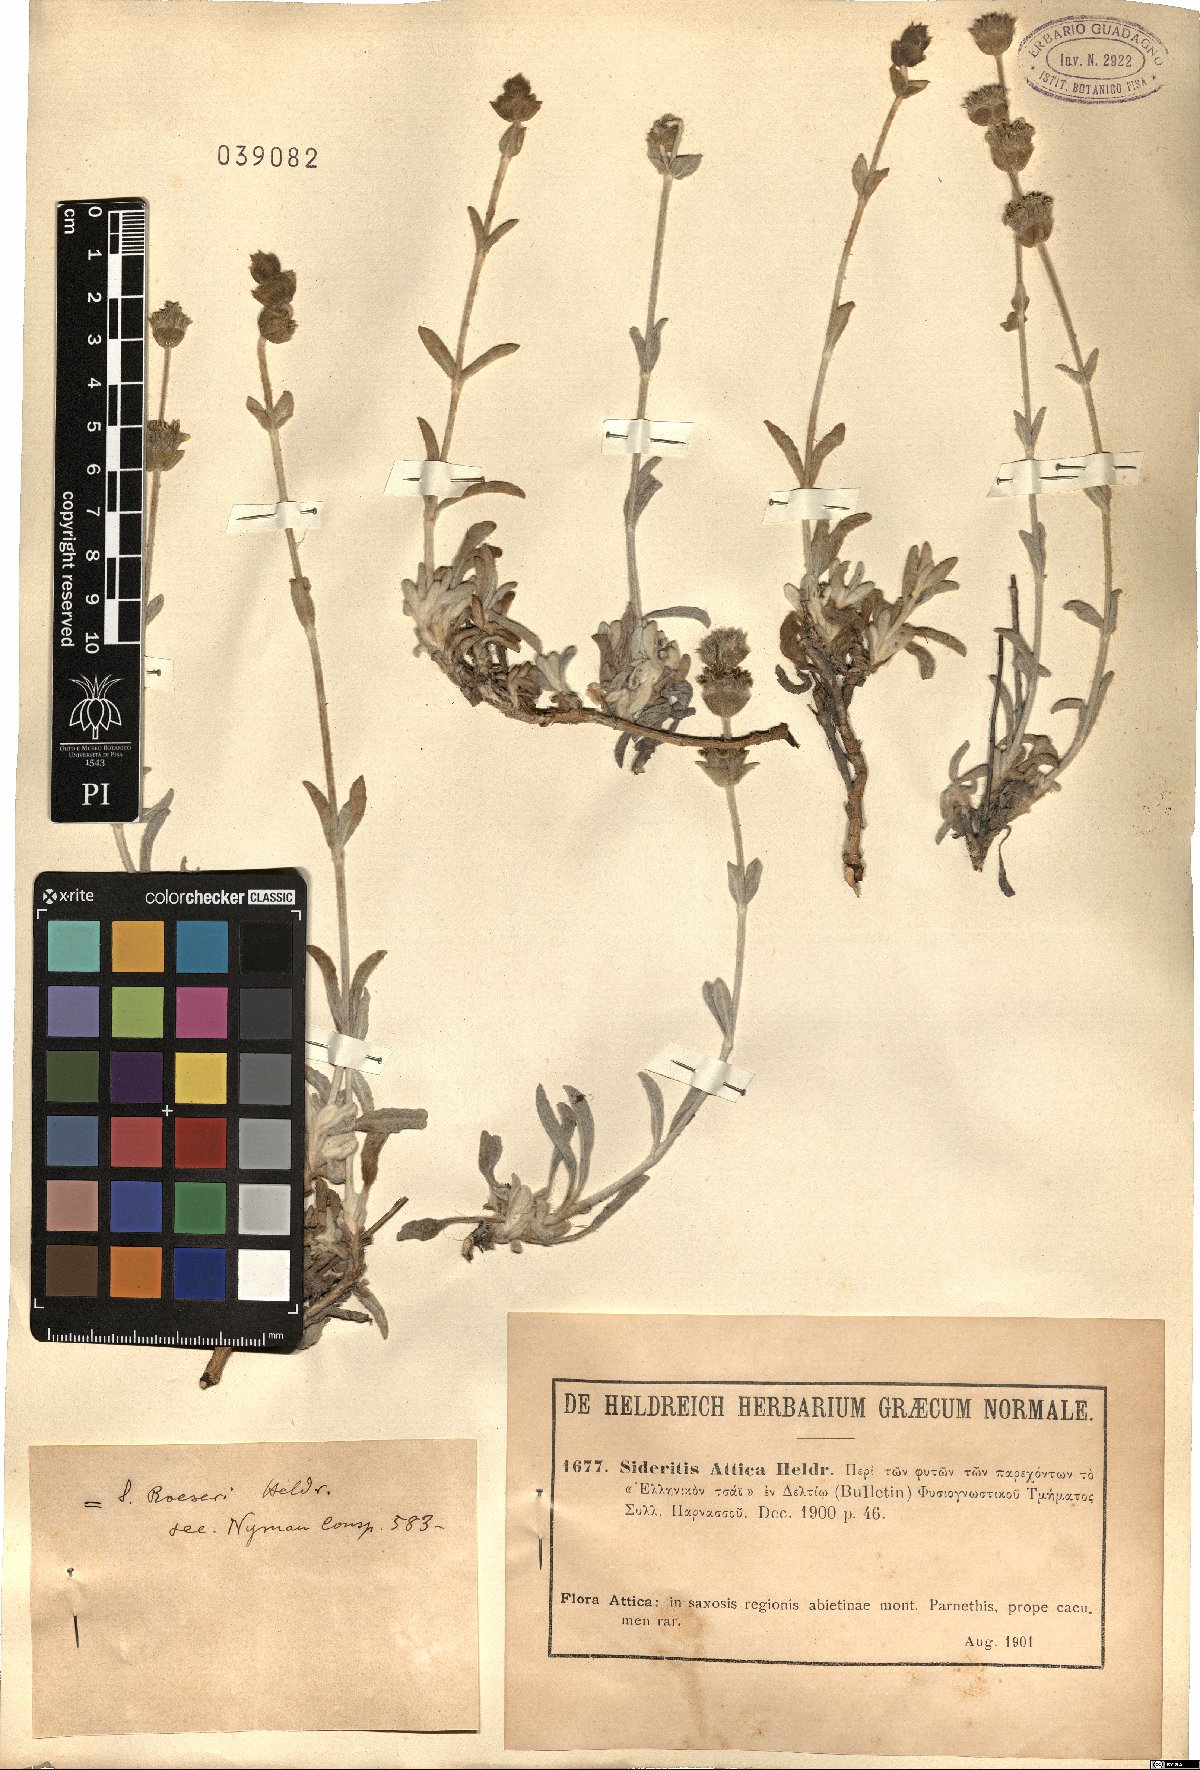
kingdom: Plantae
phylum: Tracheophyta
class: Magnoliopsida
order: Lamiales
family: Lamiaceae
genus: Sideritis
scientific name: Sideritis raeseri
